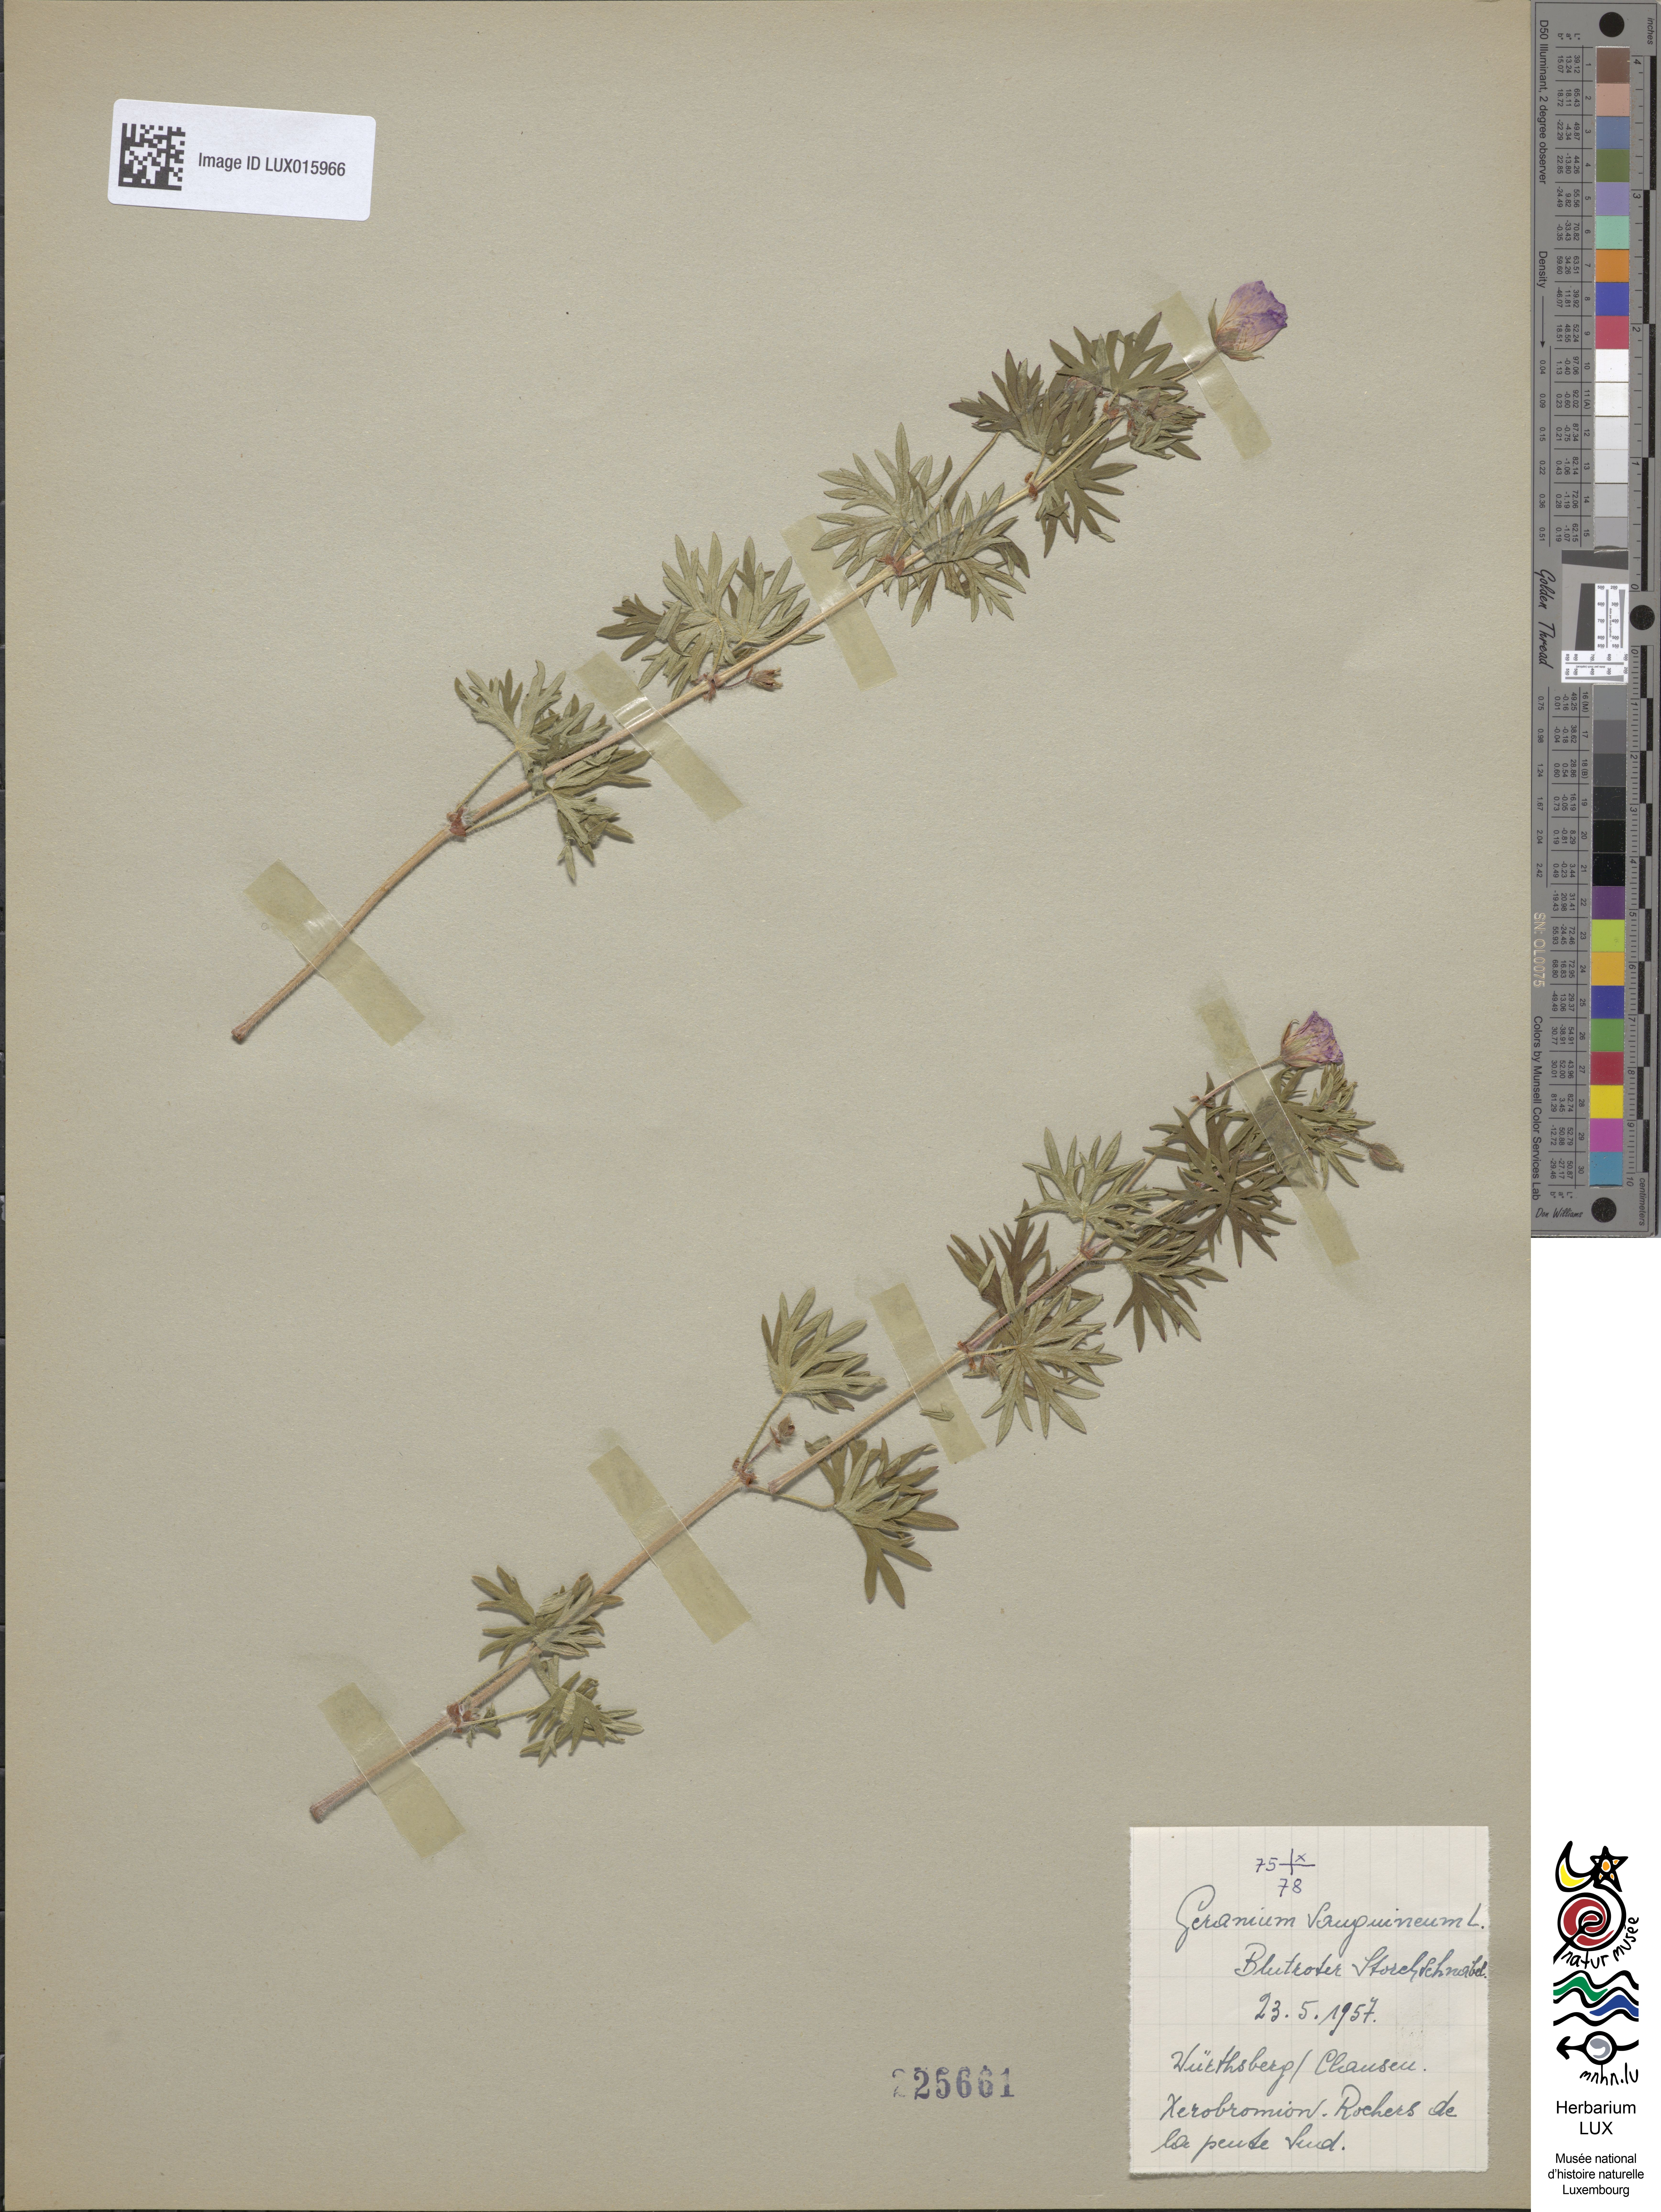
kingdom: Plantae
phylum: Tracheophyta
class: Magnoliopsida
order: Geraniales
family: Geraniaceae
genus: Geranium
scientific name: Geranium sanguineum
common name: Bloody crane's-bill
